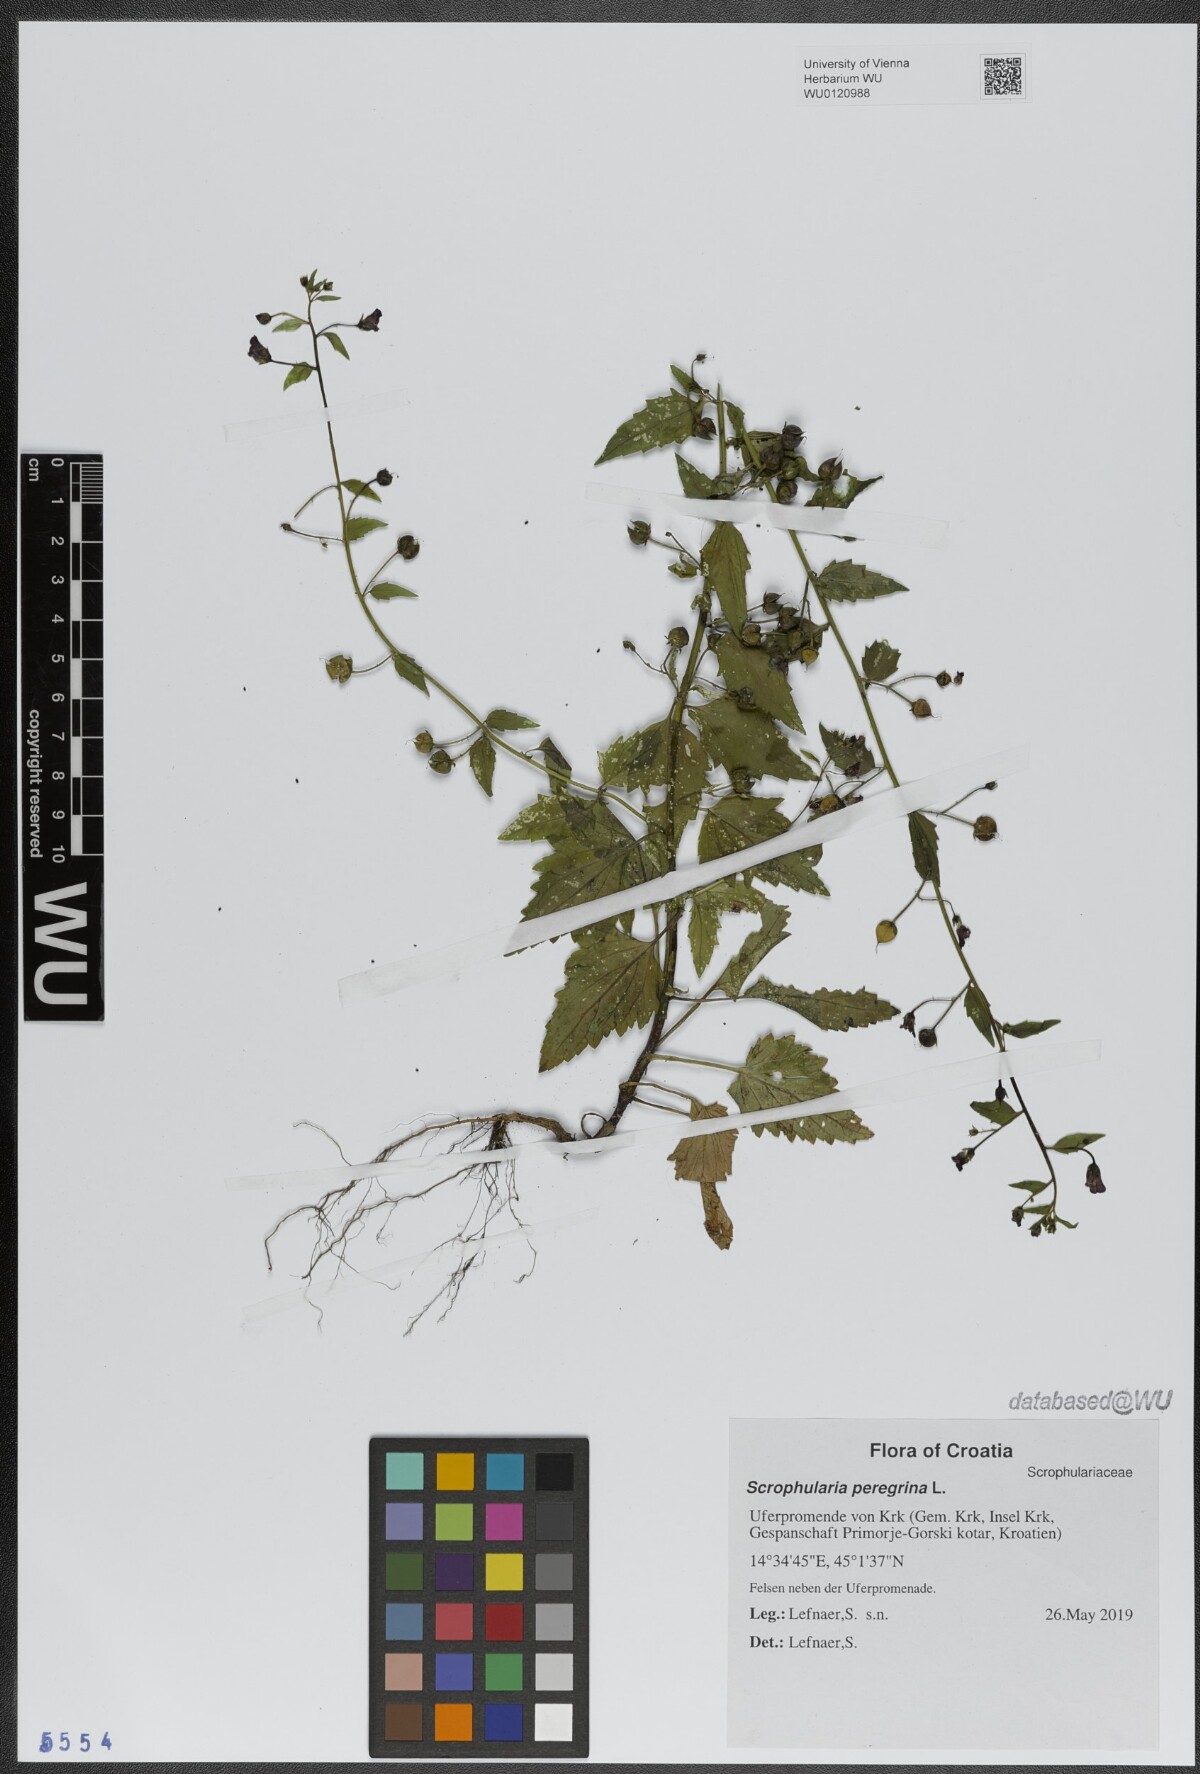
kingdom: Plantae
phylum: Tracheophyta
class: Magnoliopsida
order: Lamiales
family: Scrophulariaceae
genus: Scrophularia
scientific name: Scrophularia peregrina
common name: Mediterranean figwort
